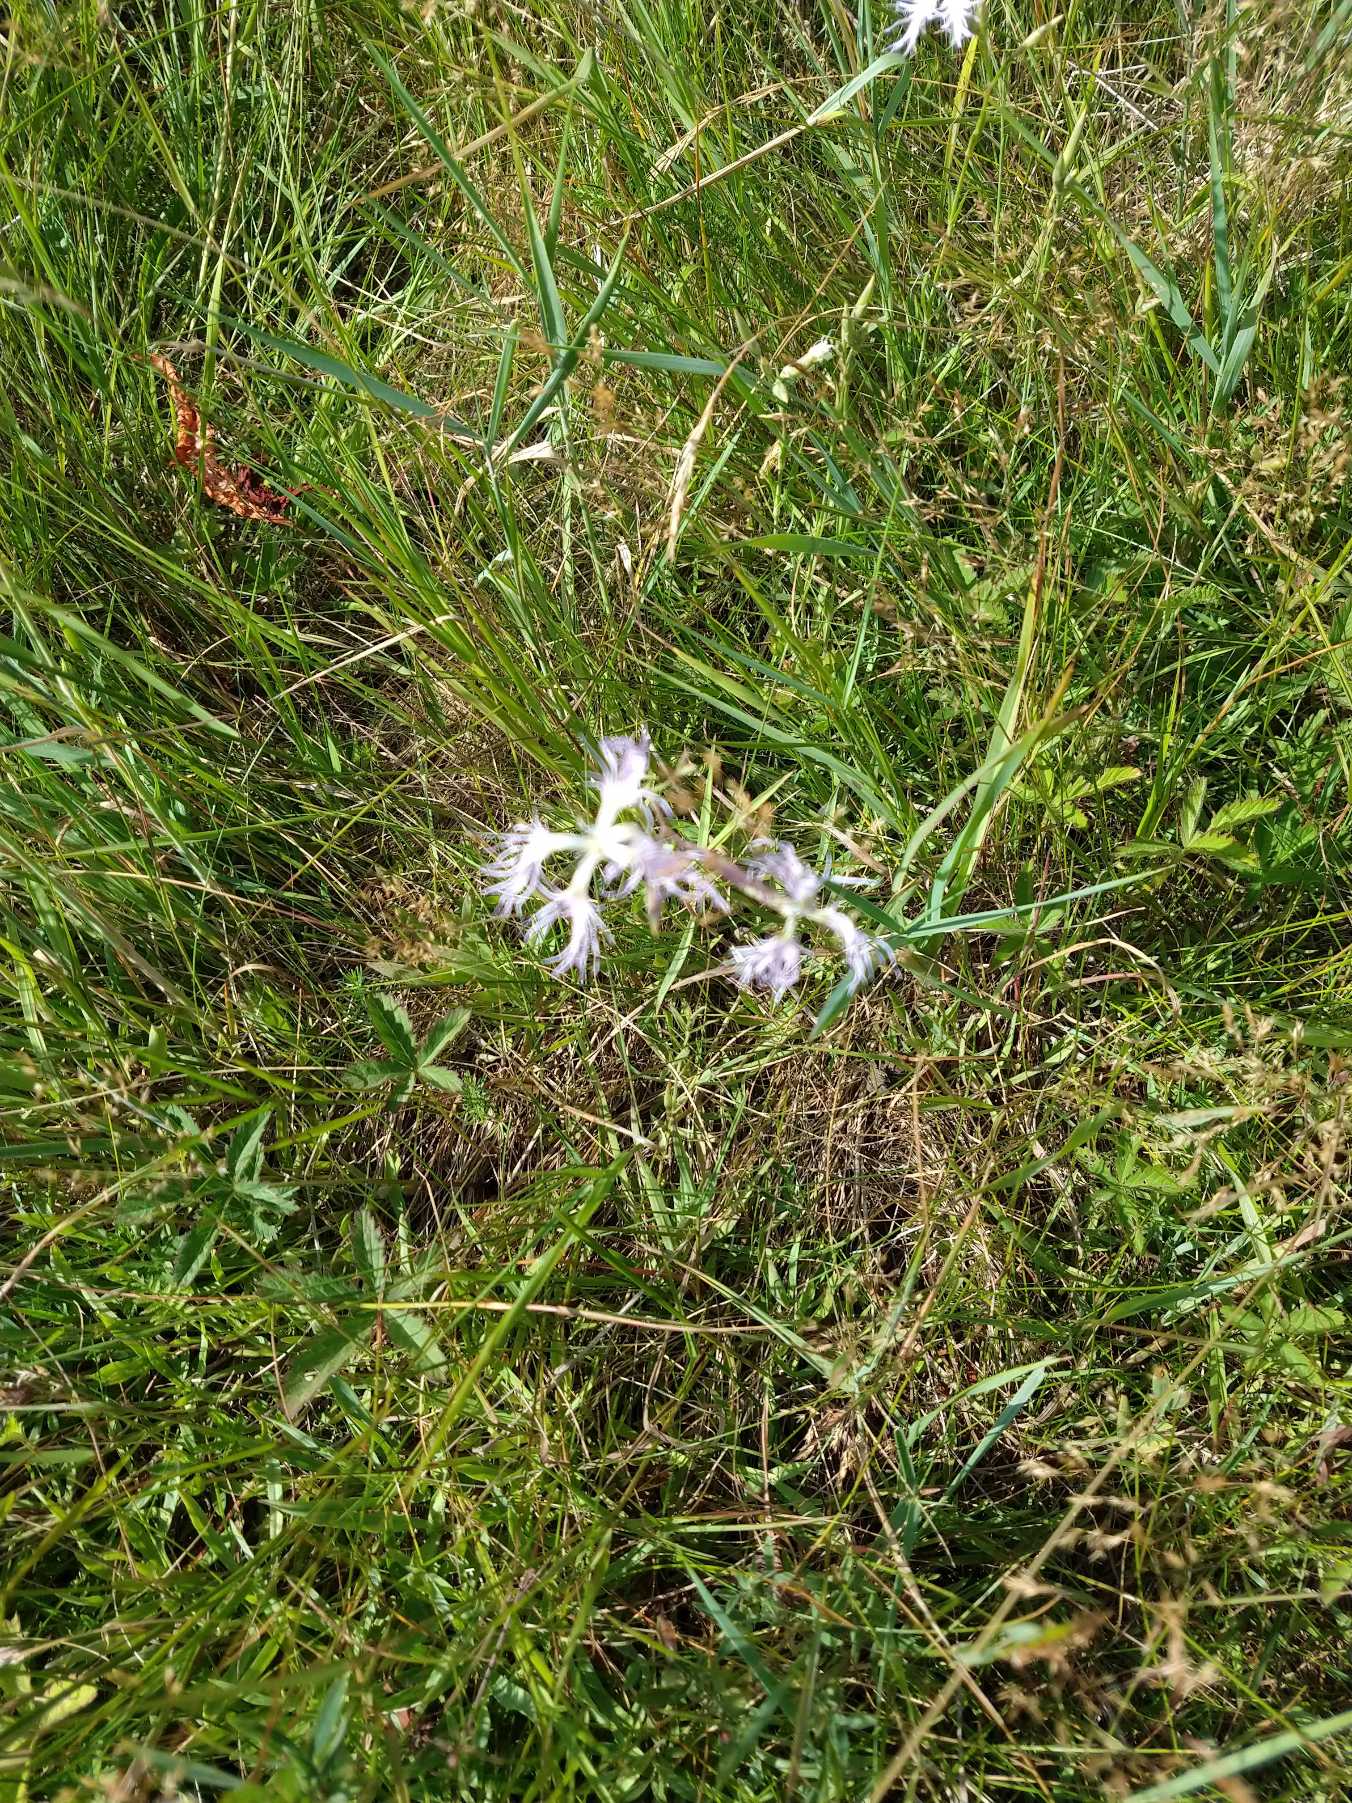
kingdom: Plantae
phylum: Tracheophyta
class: Magnoliopsida
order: Caryophyllales
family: Caryophyllaceae
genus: Dianthus
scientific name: Dianthus superbus
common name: Strand-nellike
